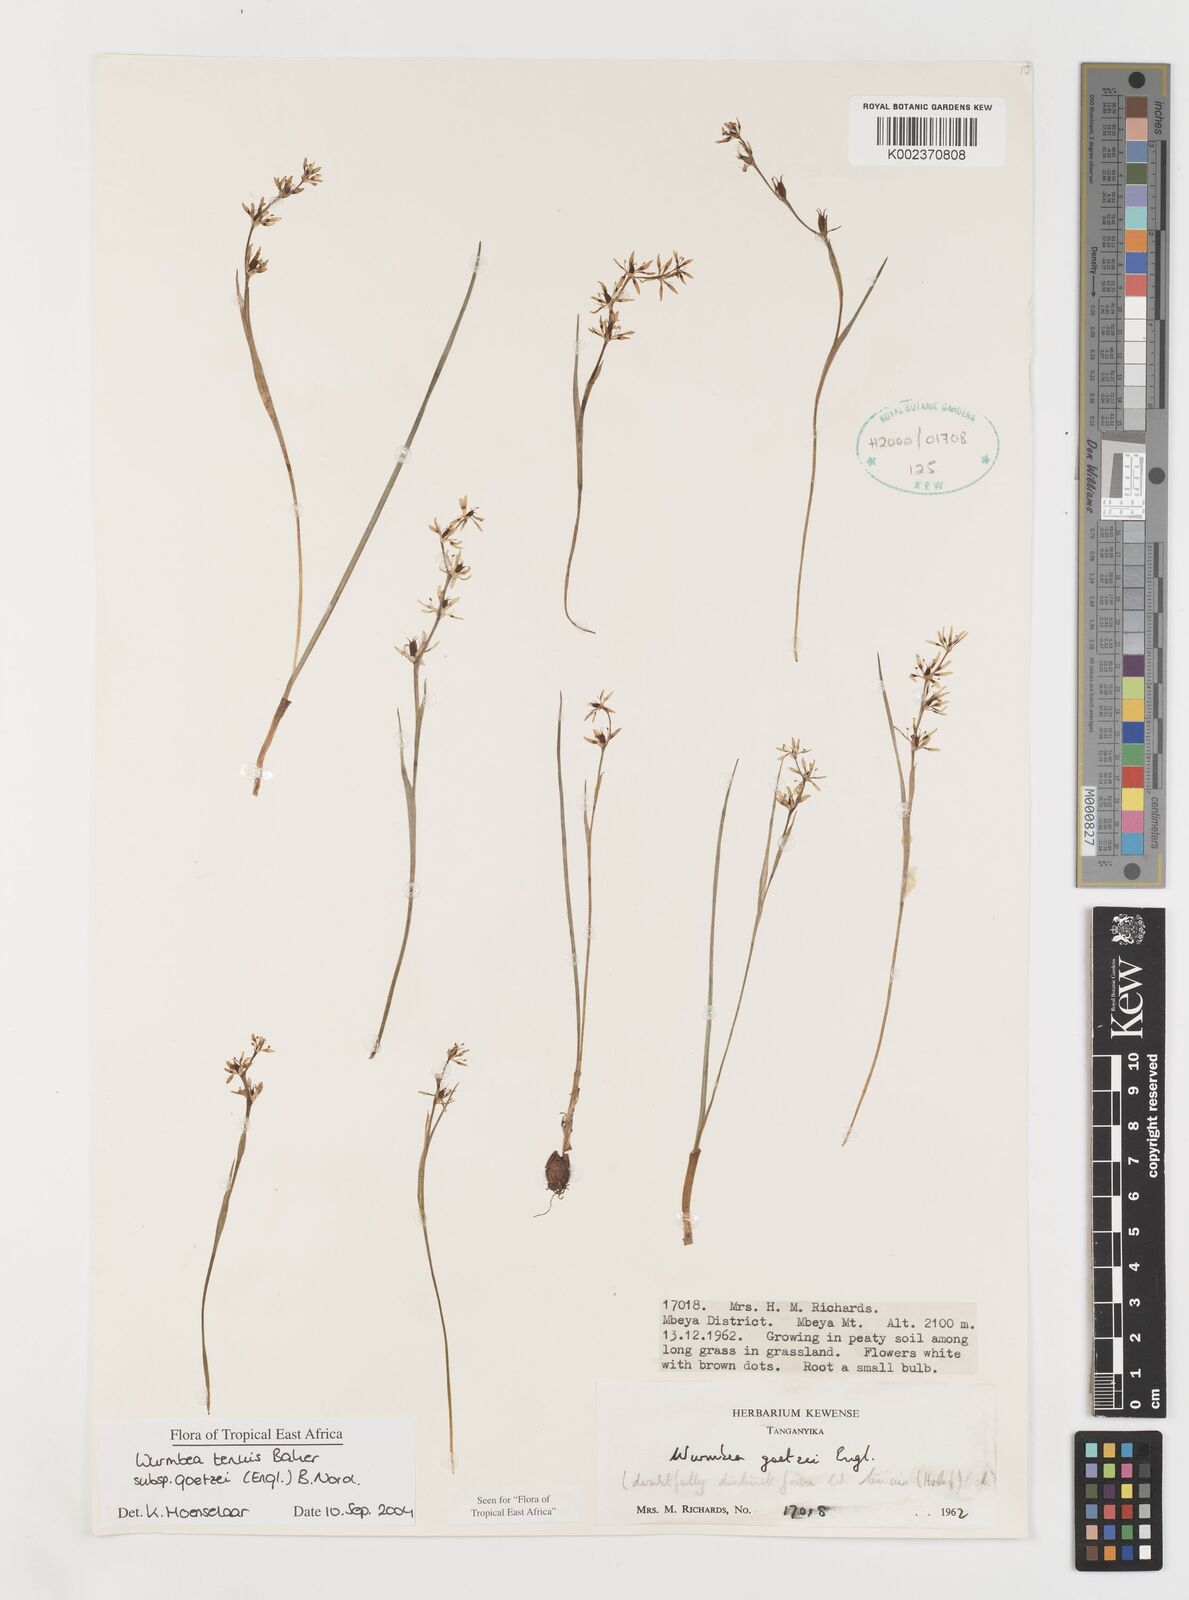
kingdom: Plantae
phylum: Tracheophyta
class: Liliopsida
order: Liliales
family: Colchicaceae
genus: Wurmbea
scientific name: Wurmbea tenuis
